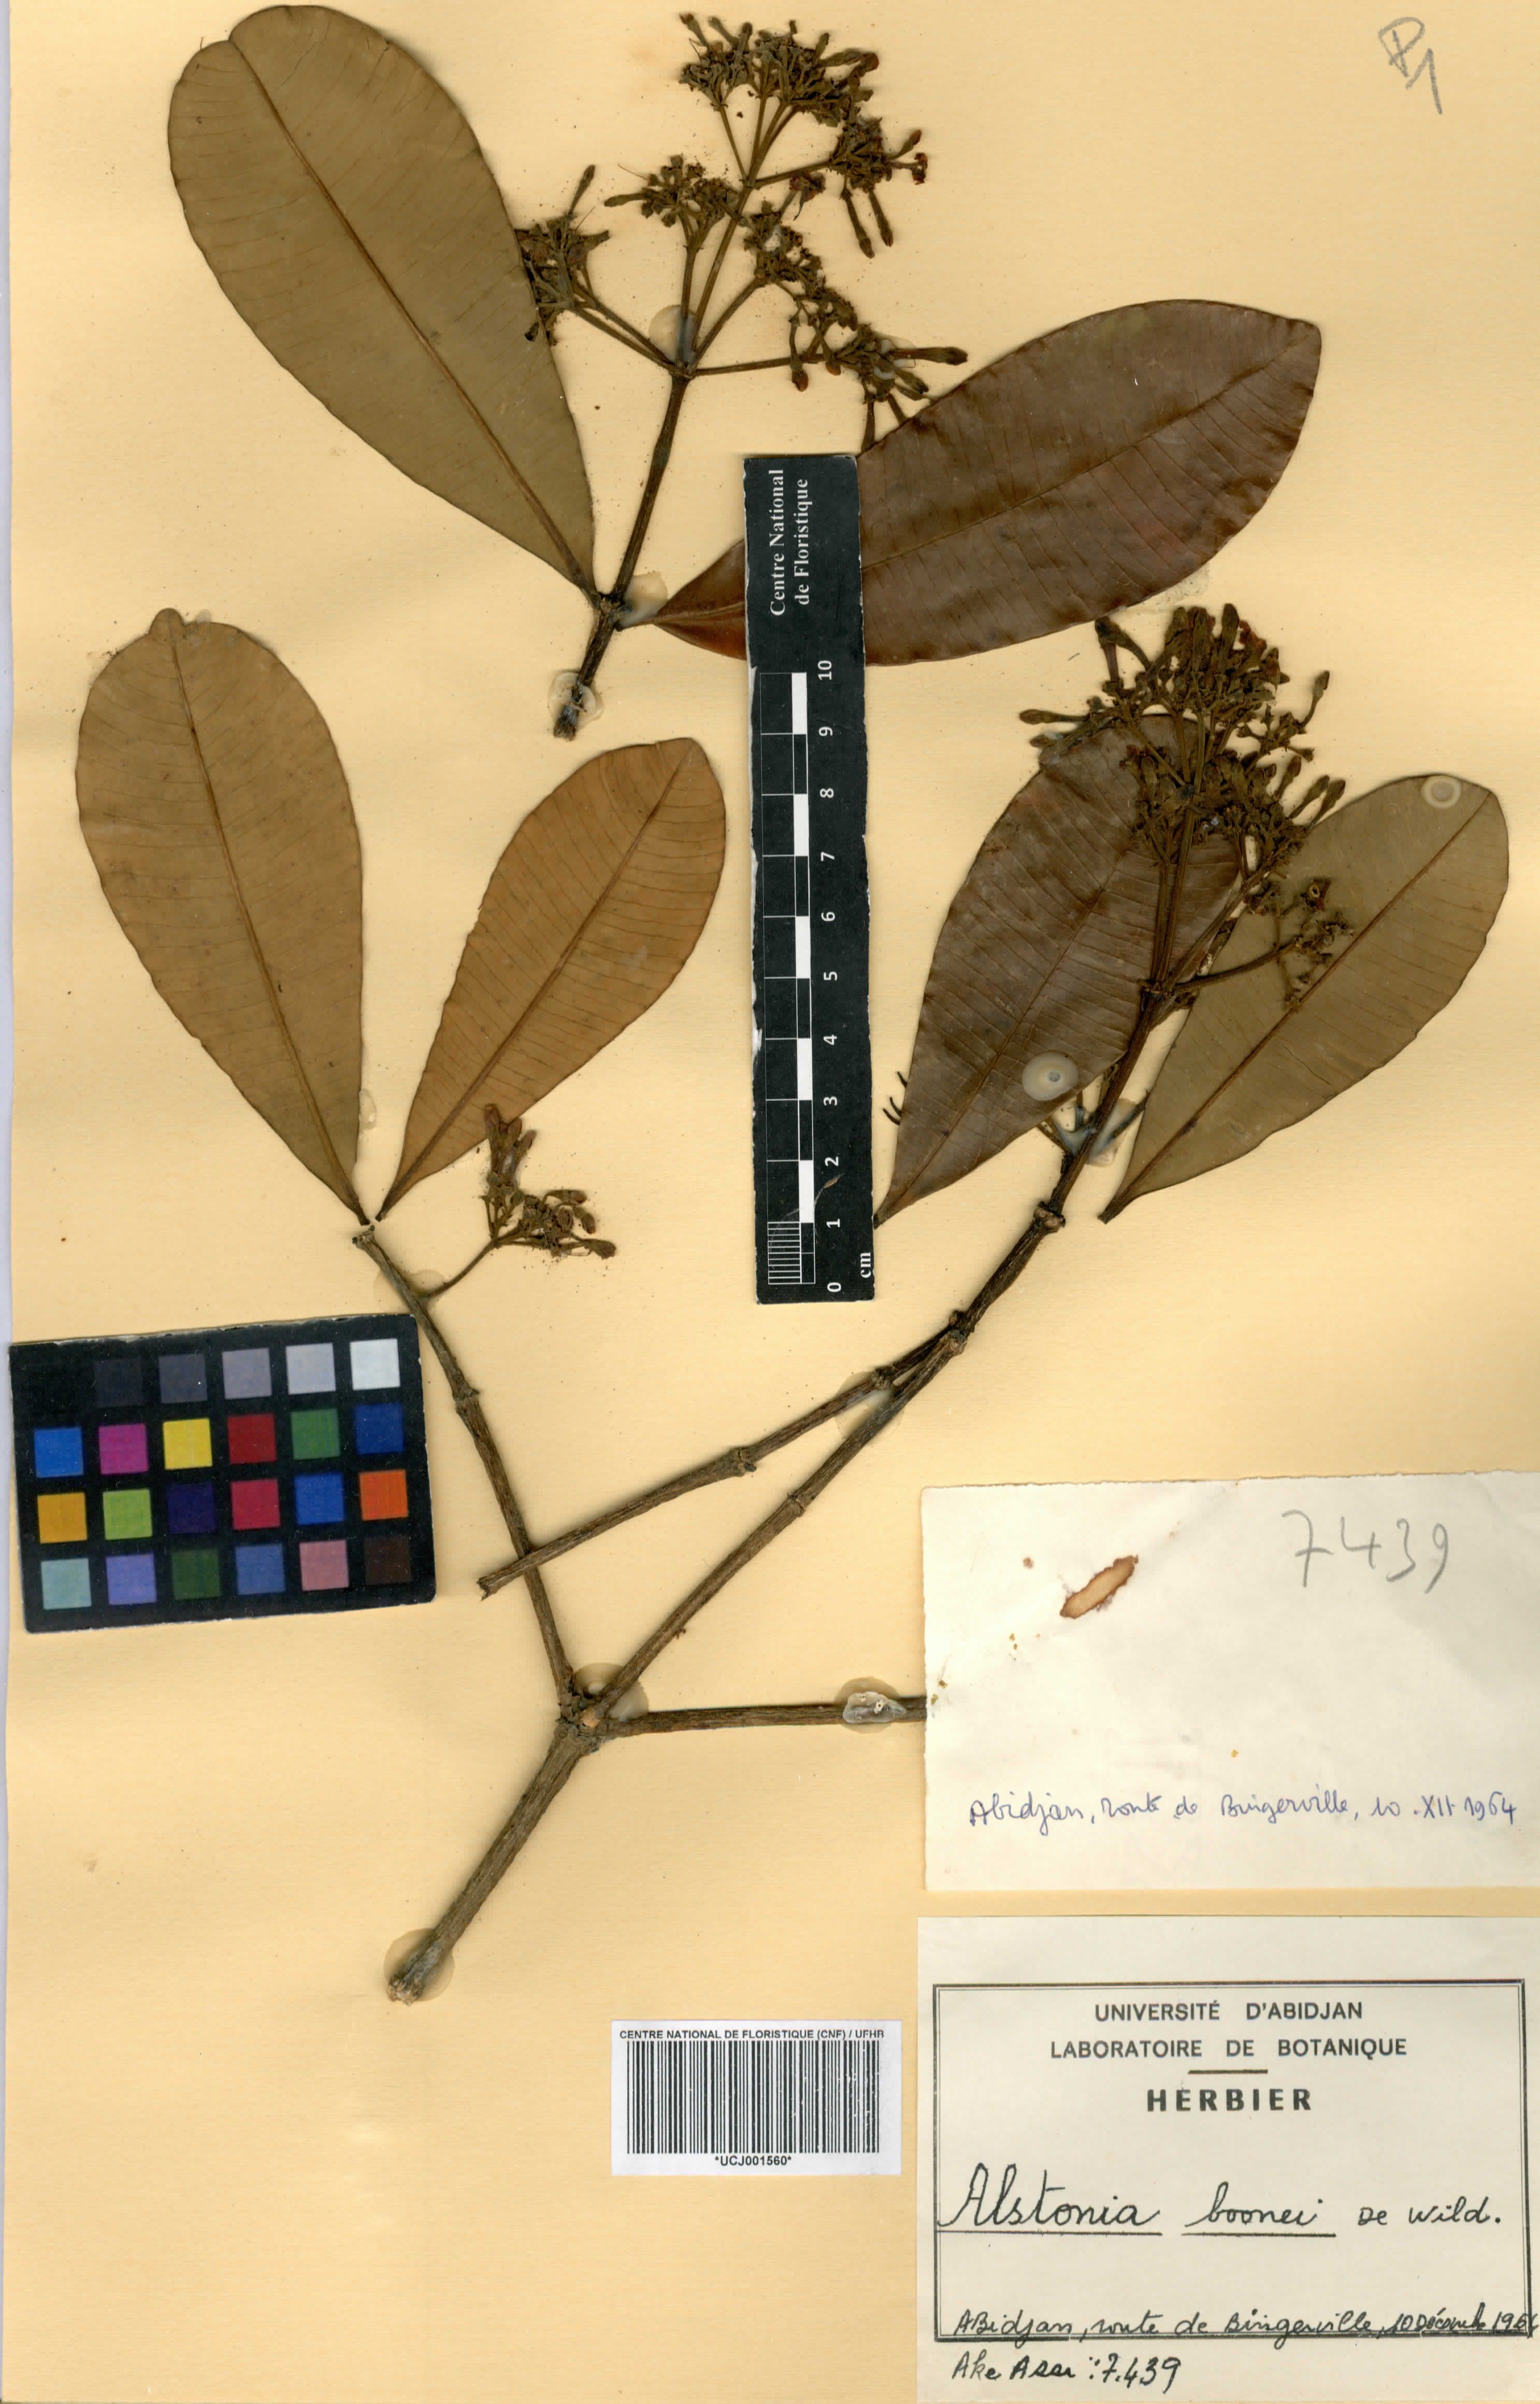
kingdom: Plantae
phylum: Tracheophyta
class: Magnoliopsida
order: Gentianales
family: Apocynaceae
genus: Alstonia
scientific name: Alstonia boonei
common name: Alstonia
